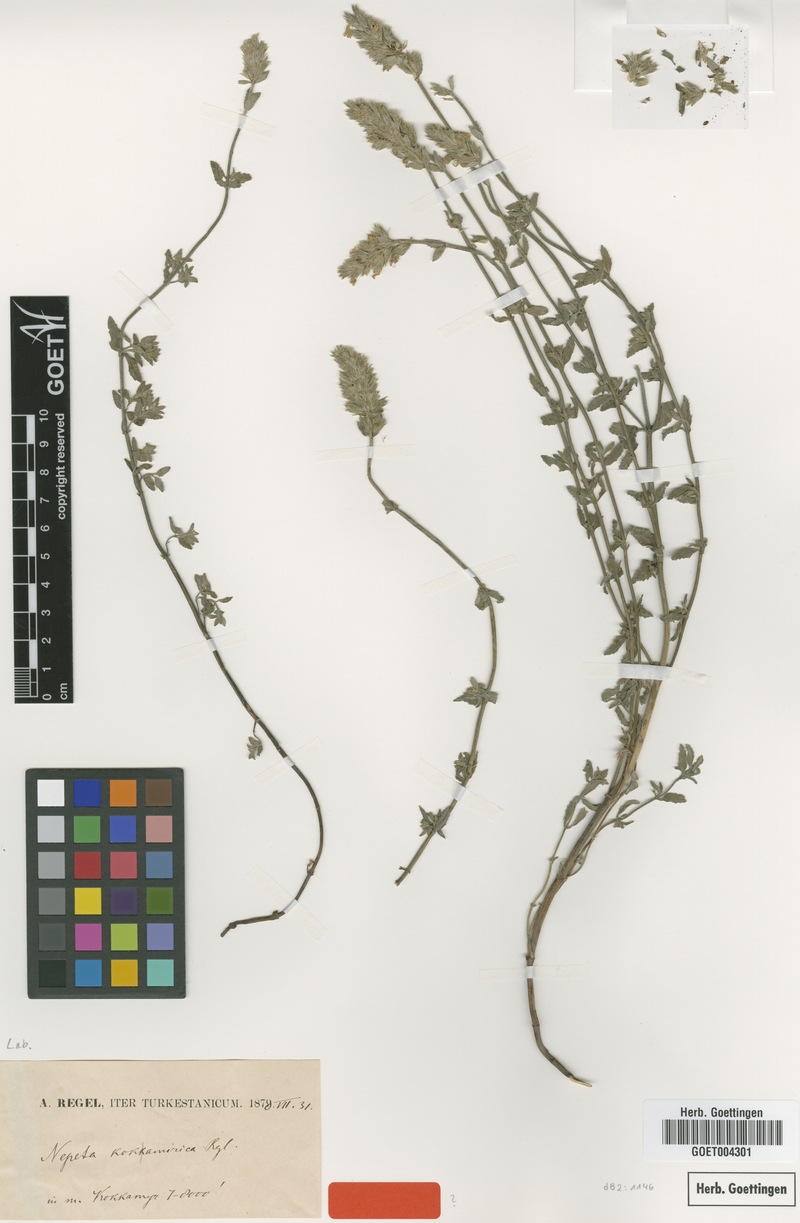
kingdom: Plantae
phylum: Tracheophyta
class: Magnoliopsida
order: Lamiales
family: Lamiaceae
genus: Nepeta
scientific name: Nepeta kokamirica
